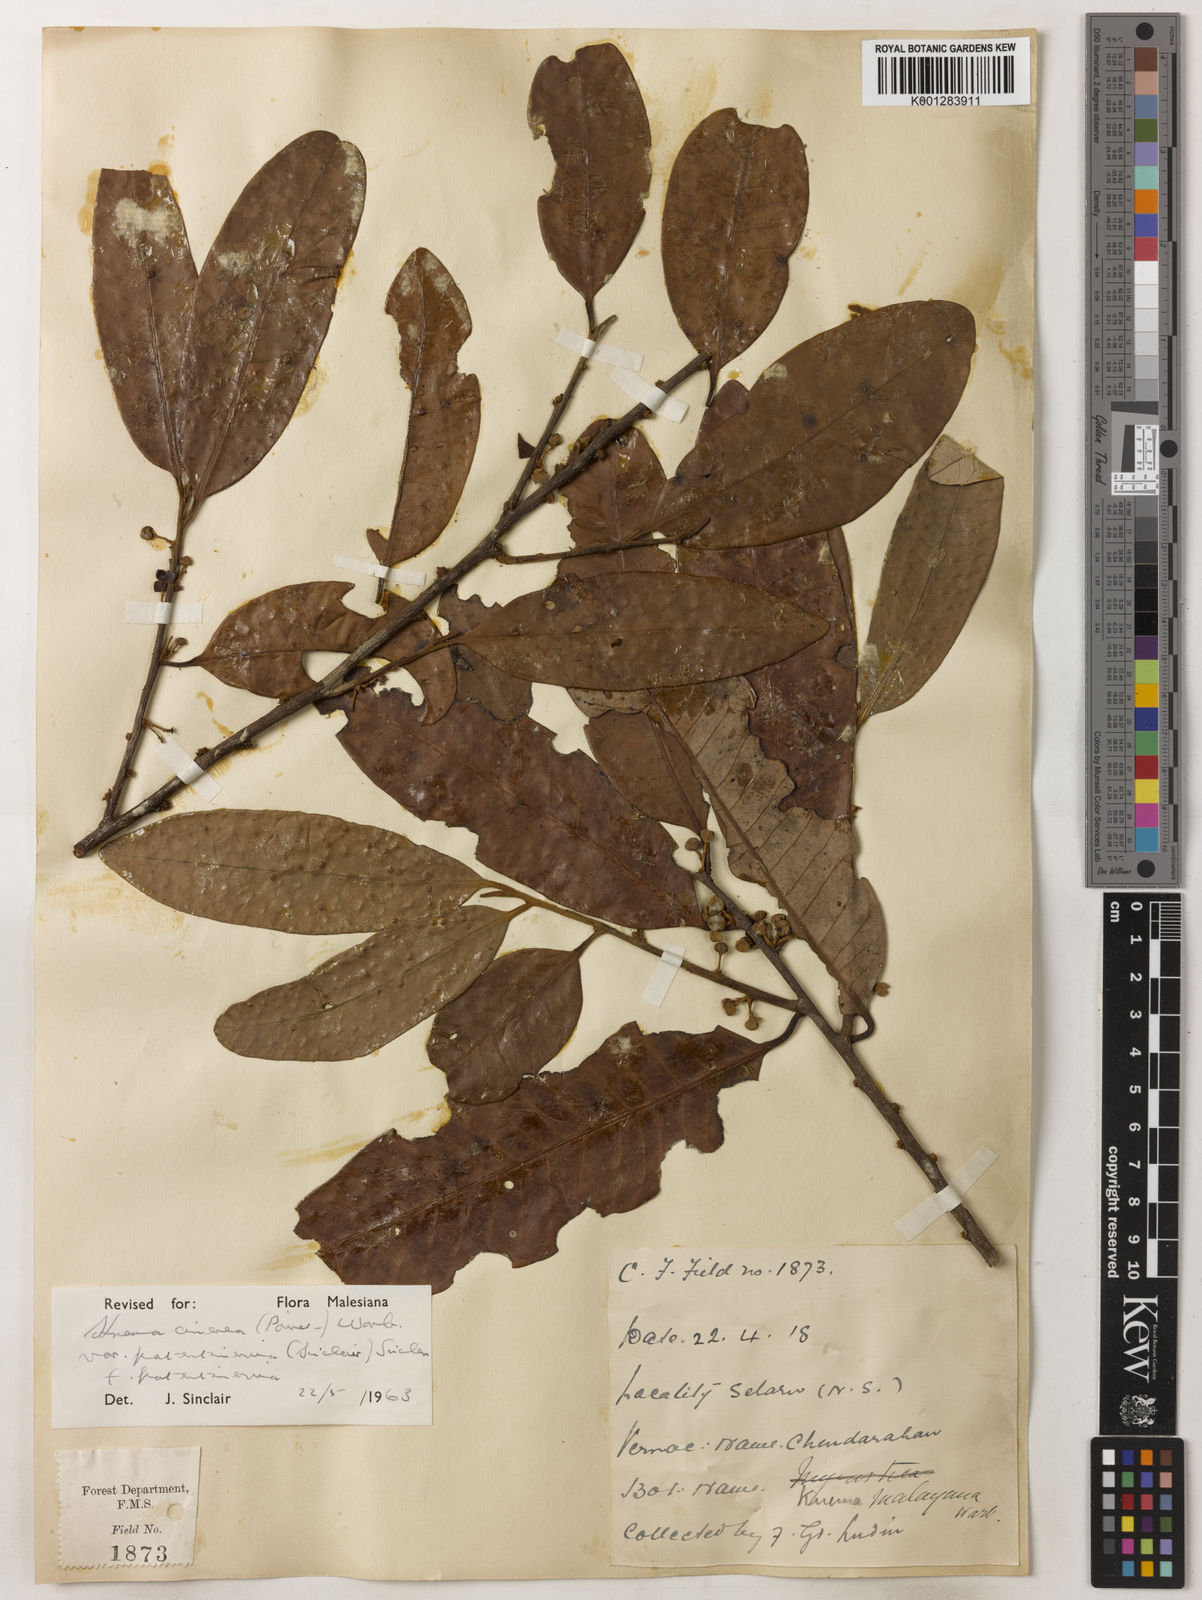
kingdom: Plantae
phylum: Tracheophyta
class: Magnoliopsida
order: Magnoliales
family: Myristicaceae
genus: Knema
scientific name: Knema
